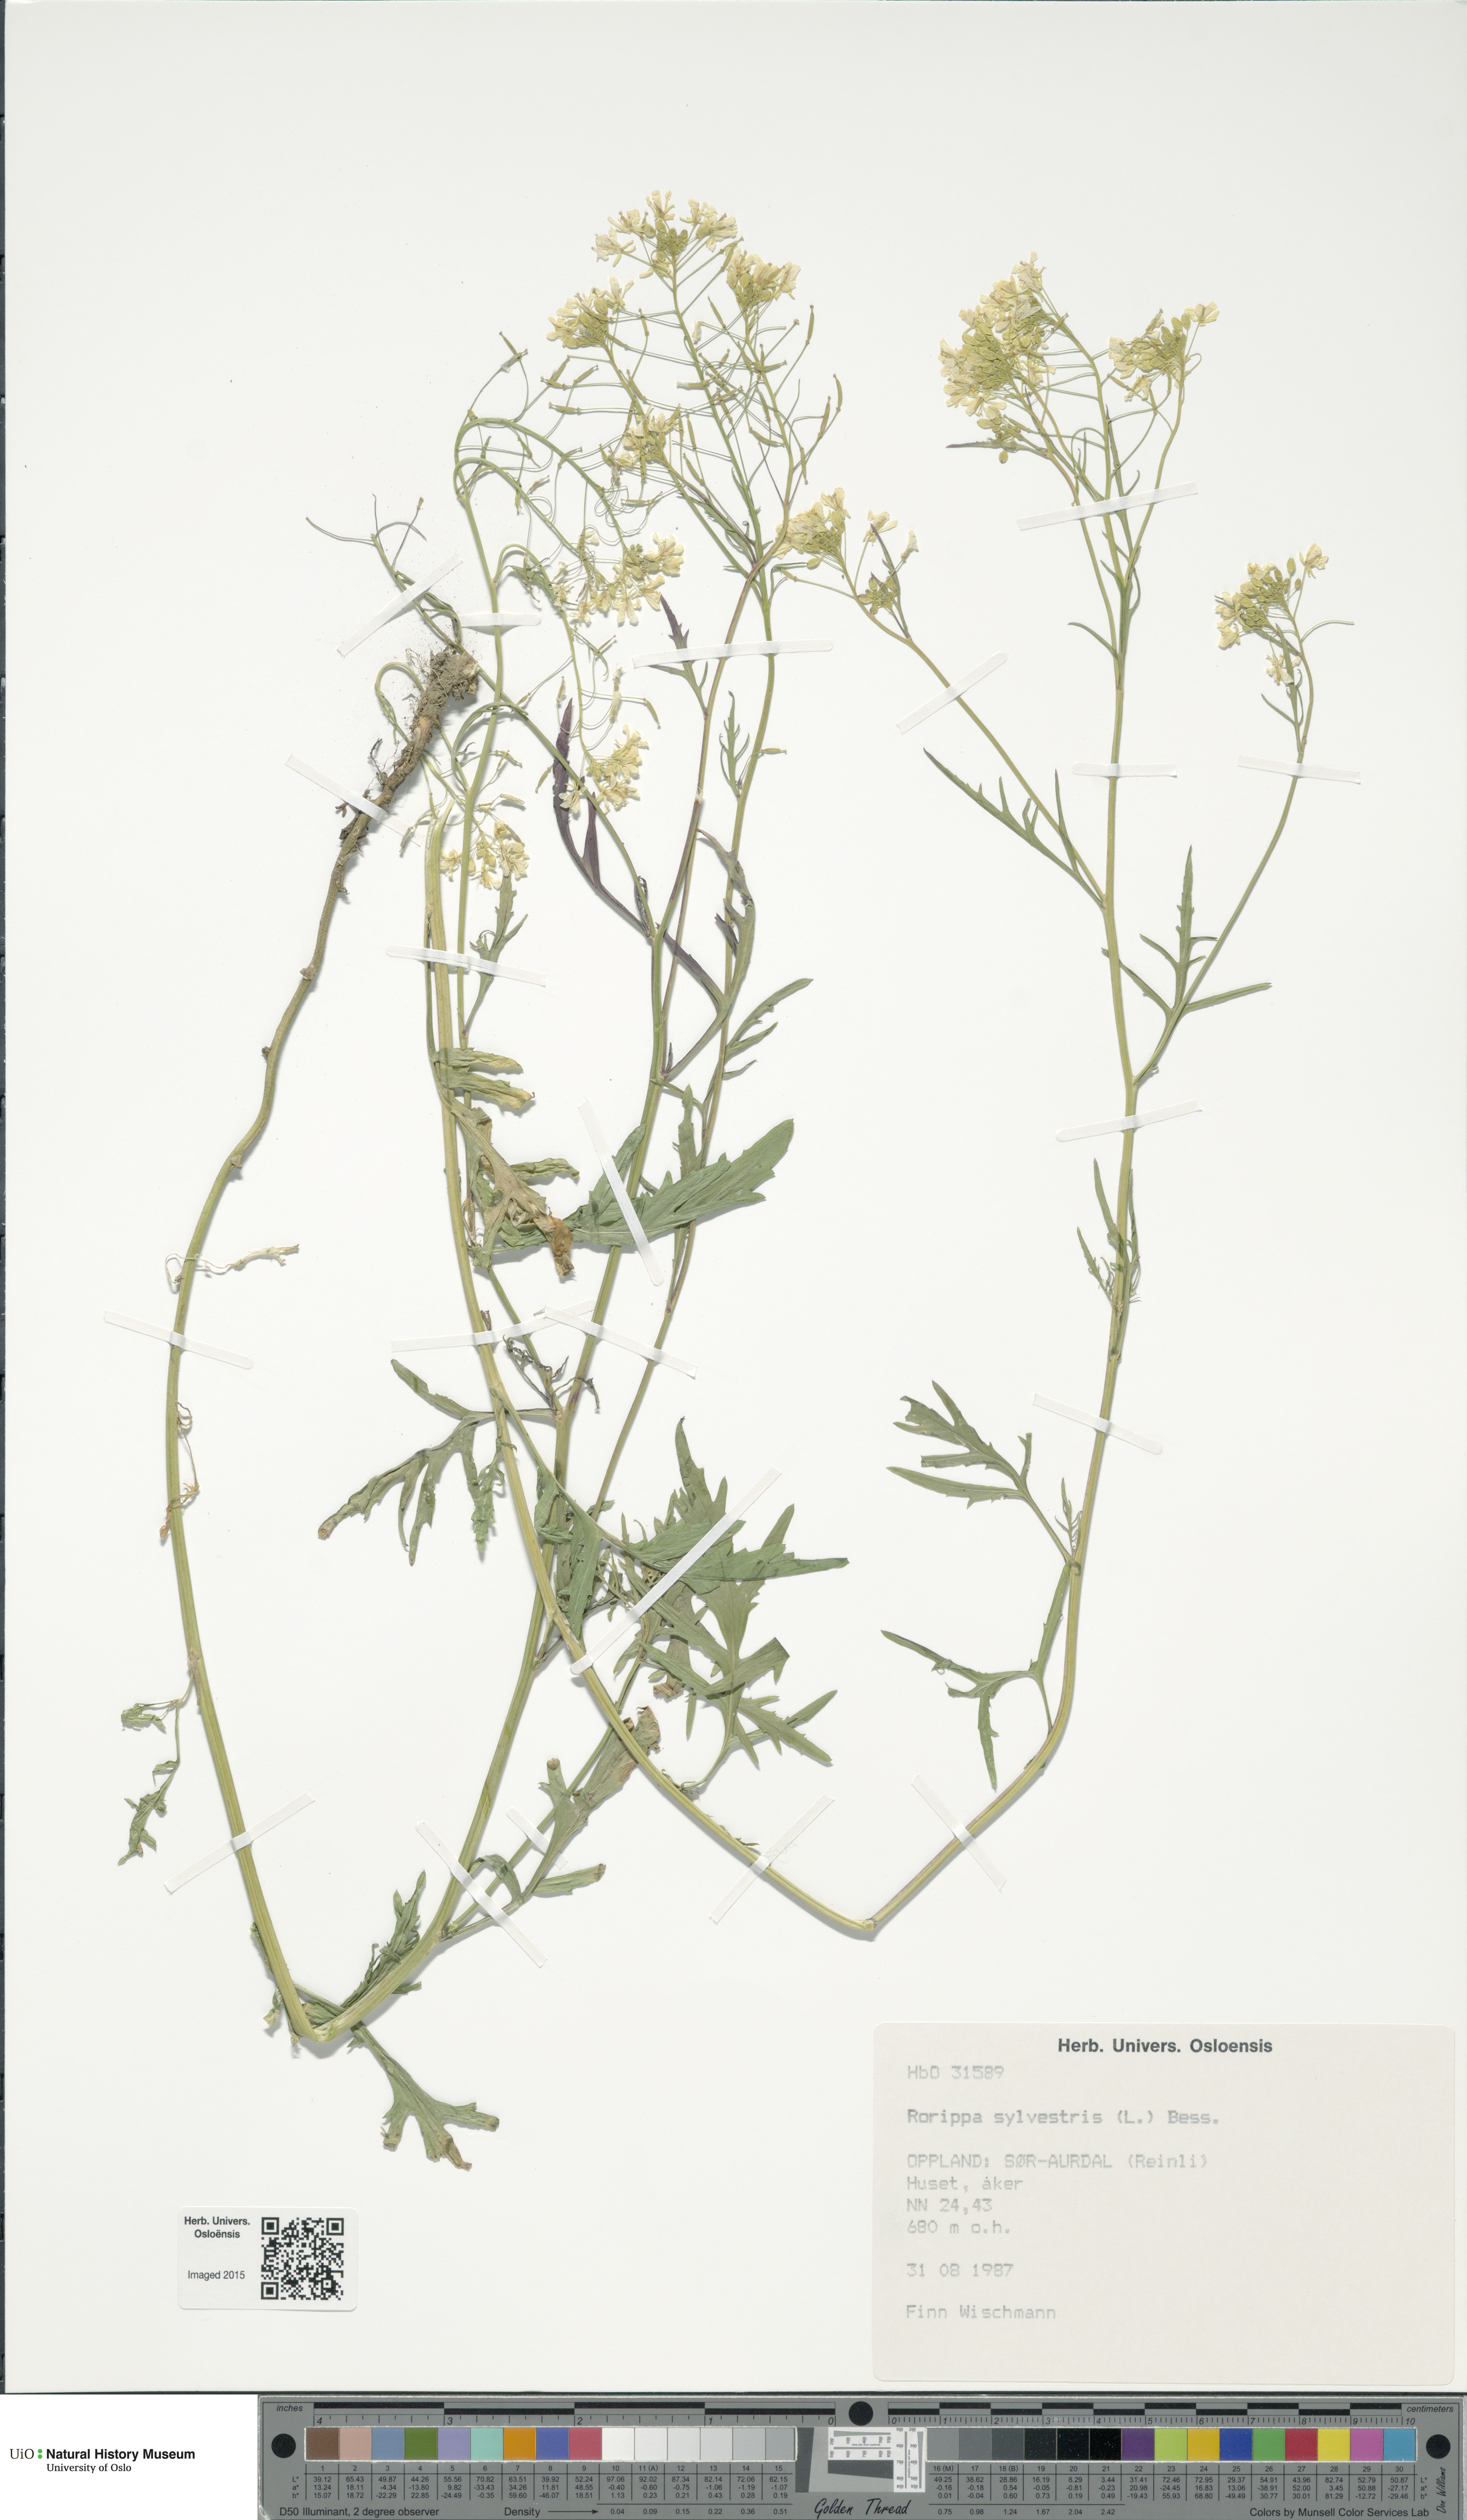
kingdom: Plantae
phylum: Tracheophyta
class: Magnoliopsida
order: Brassicales
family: Brassicaceae
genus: Rorippa
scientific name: Rorippa sylvestris
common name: Creeping yellowcress
